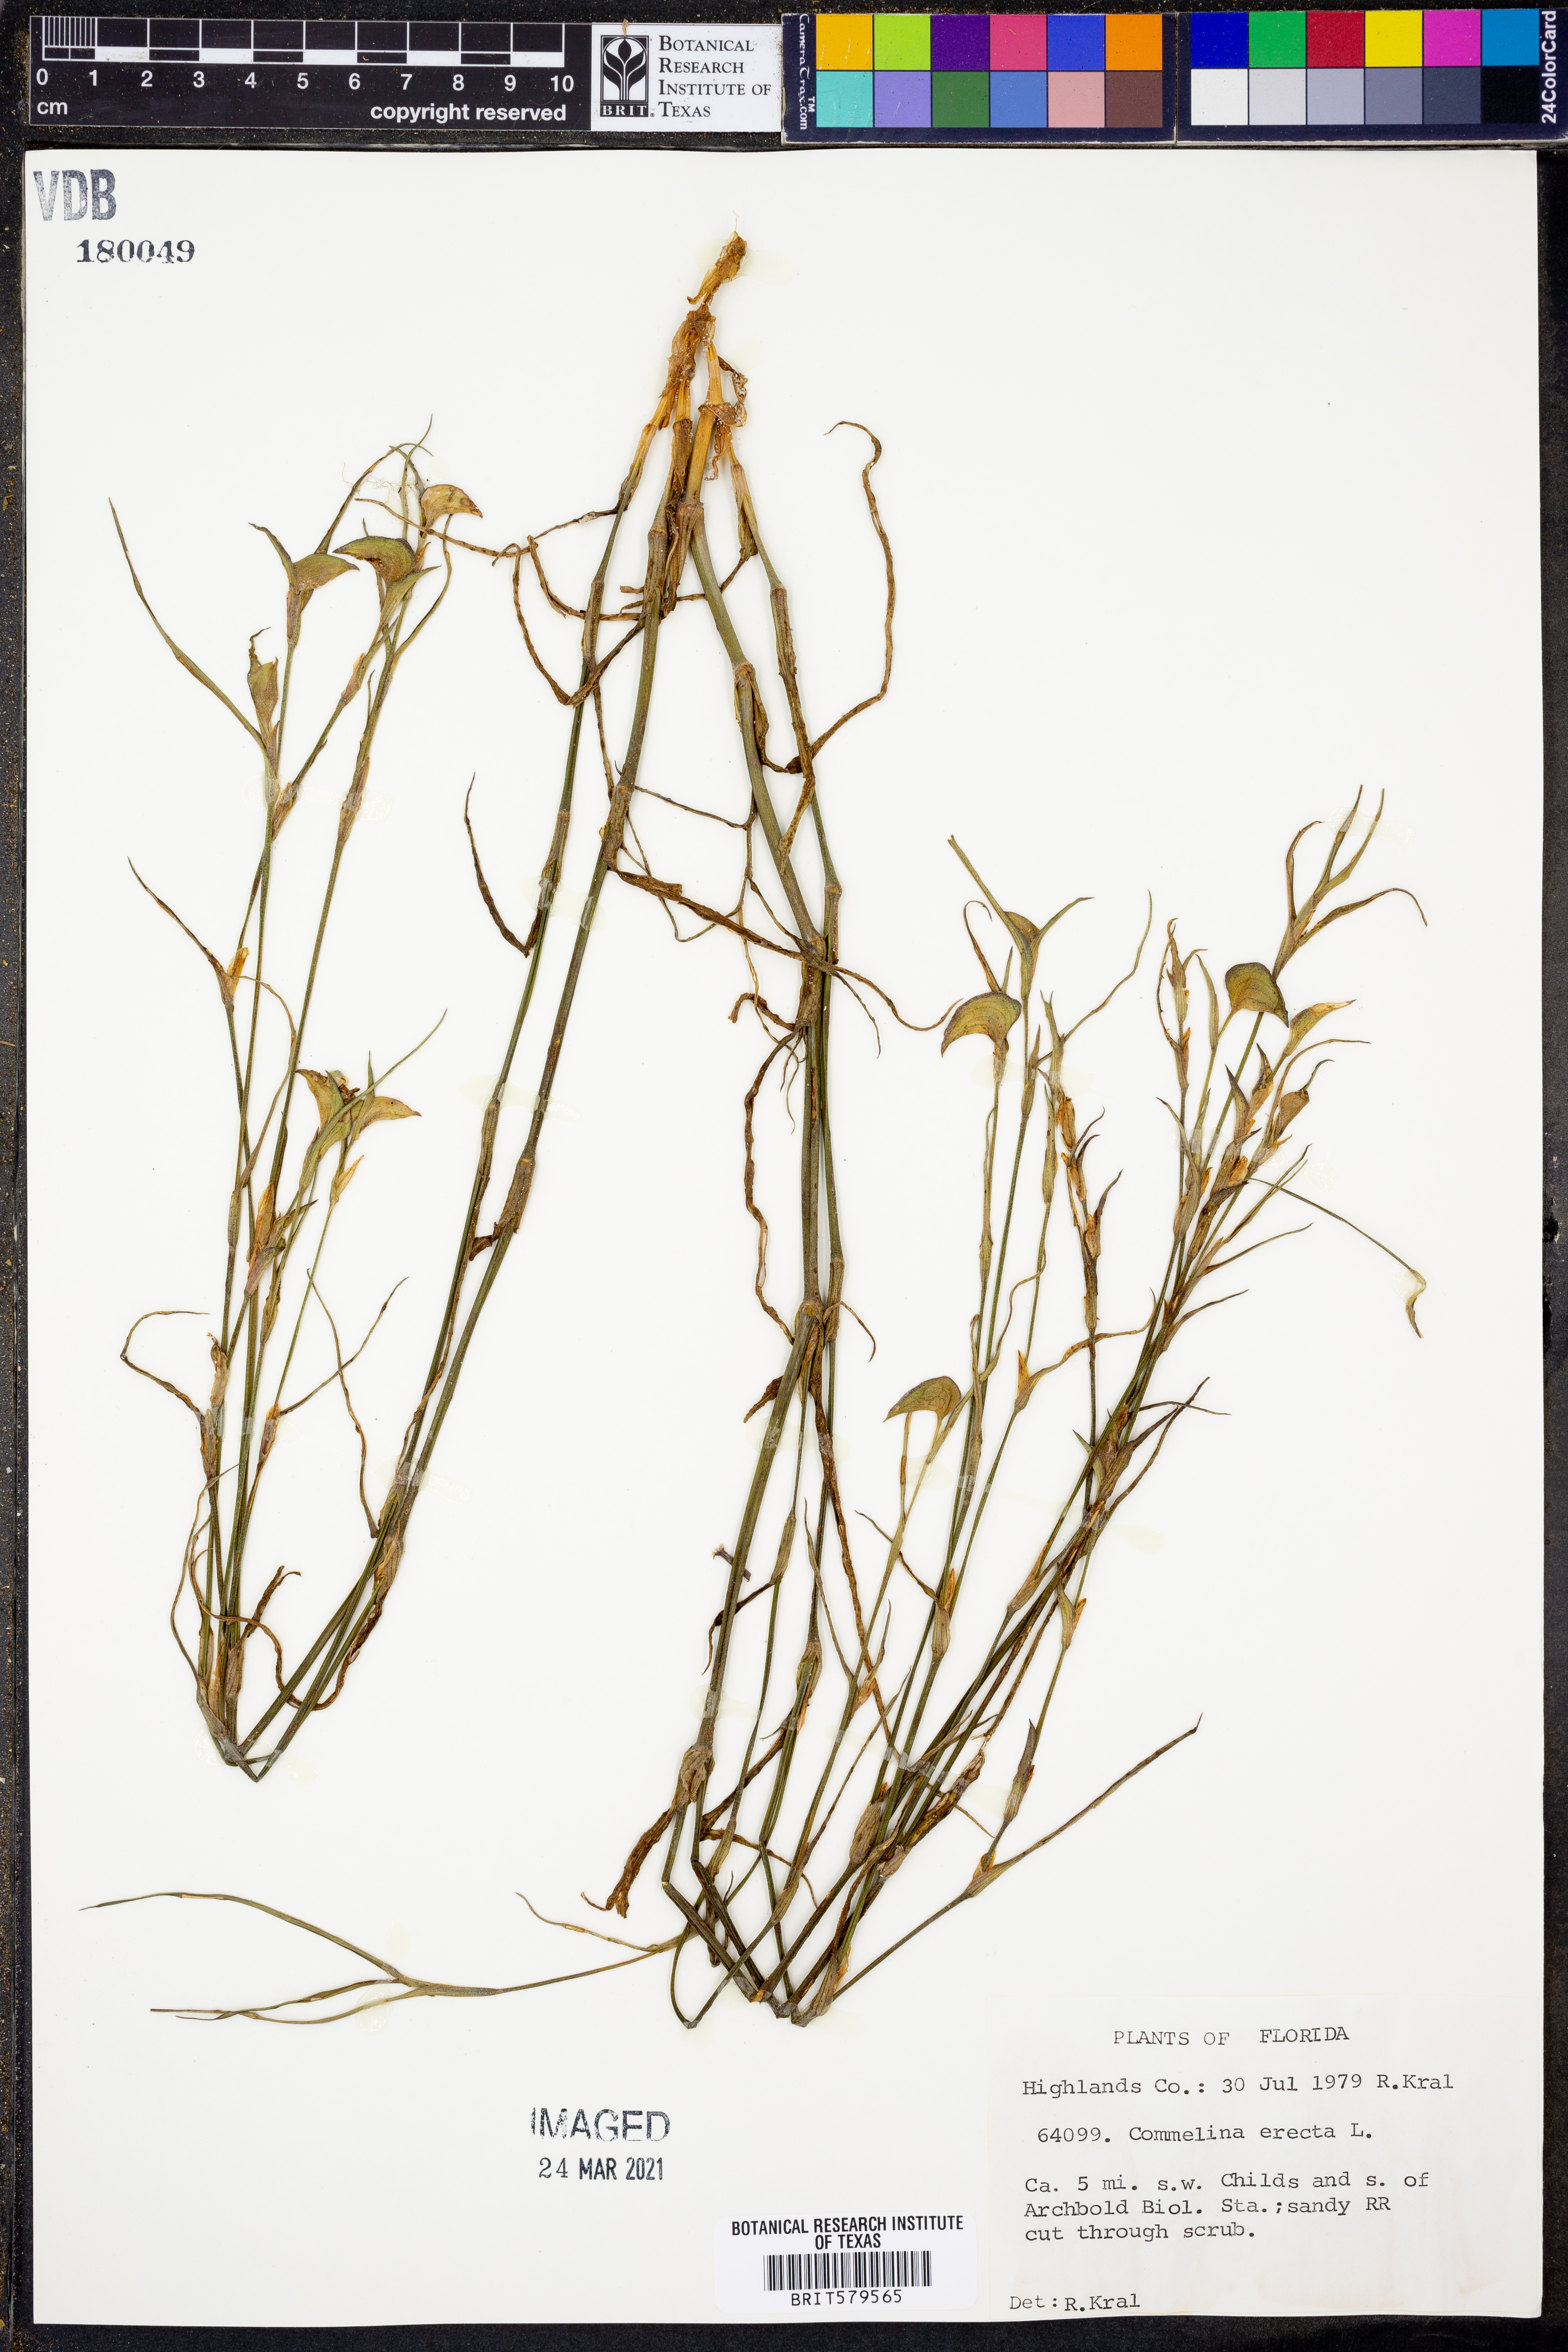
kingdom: Plantae
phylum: Tracheophyta
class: Liliopsida
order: Commelinales
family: Commelinaceae
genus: Commelina
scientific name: Commelina erecta
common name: Blousel blommetjie
